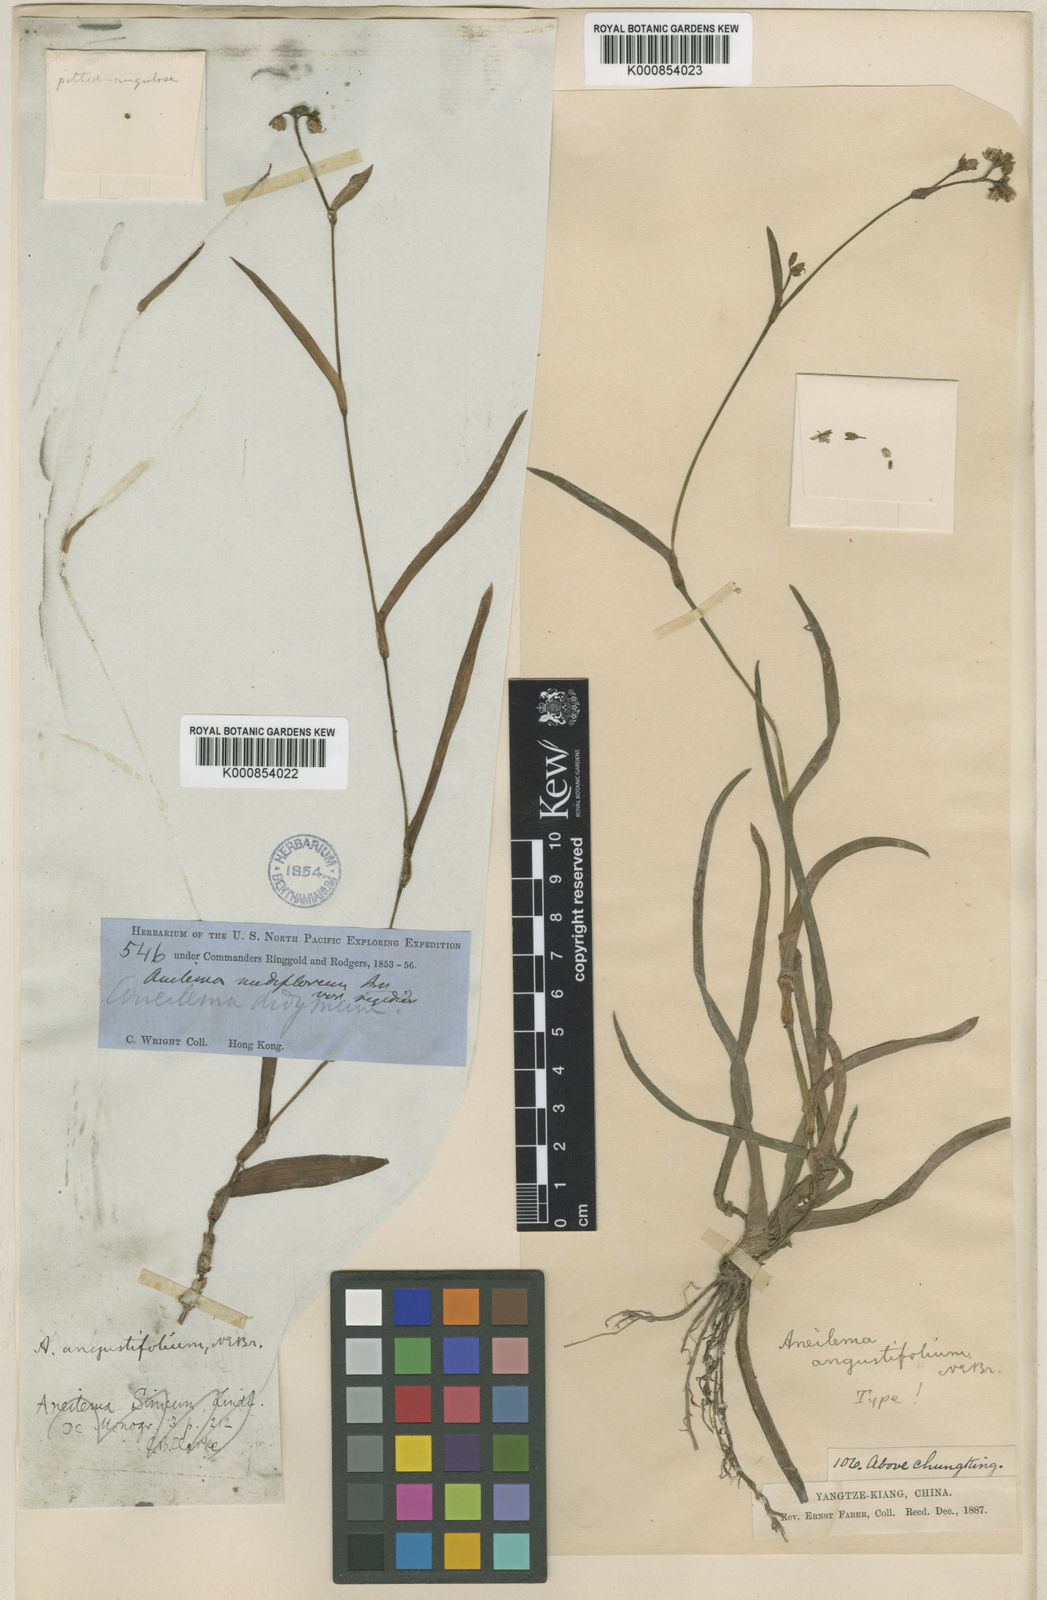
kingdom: Plantae
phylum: Tracheophyta
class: Liliopsida
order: Commelinales
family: Commelinaceae
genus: Murdannia
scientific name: Murdannia loriformis
